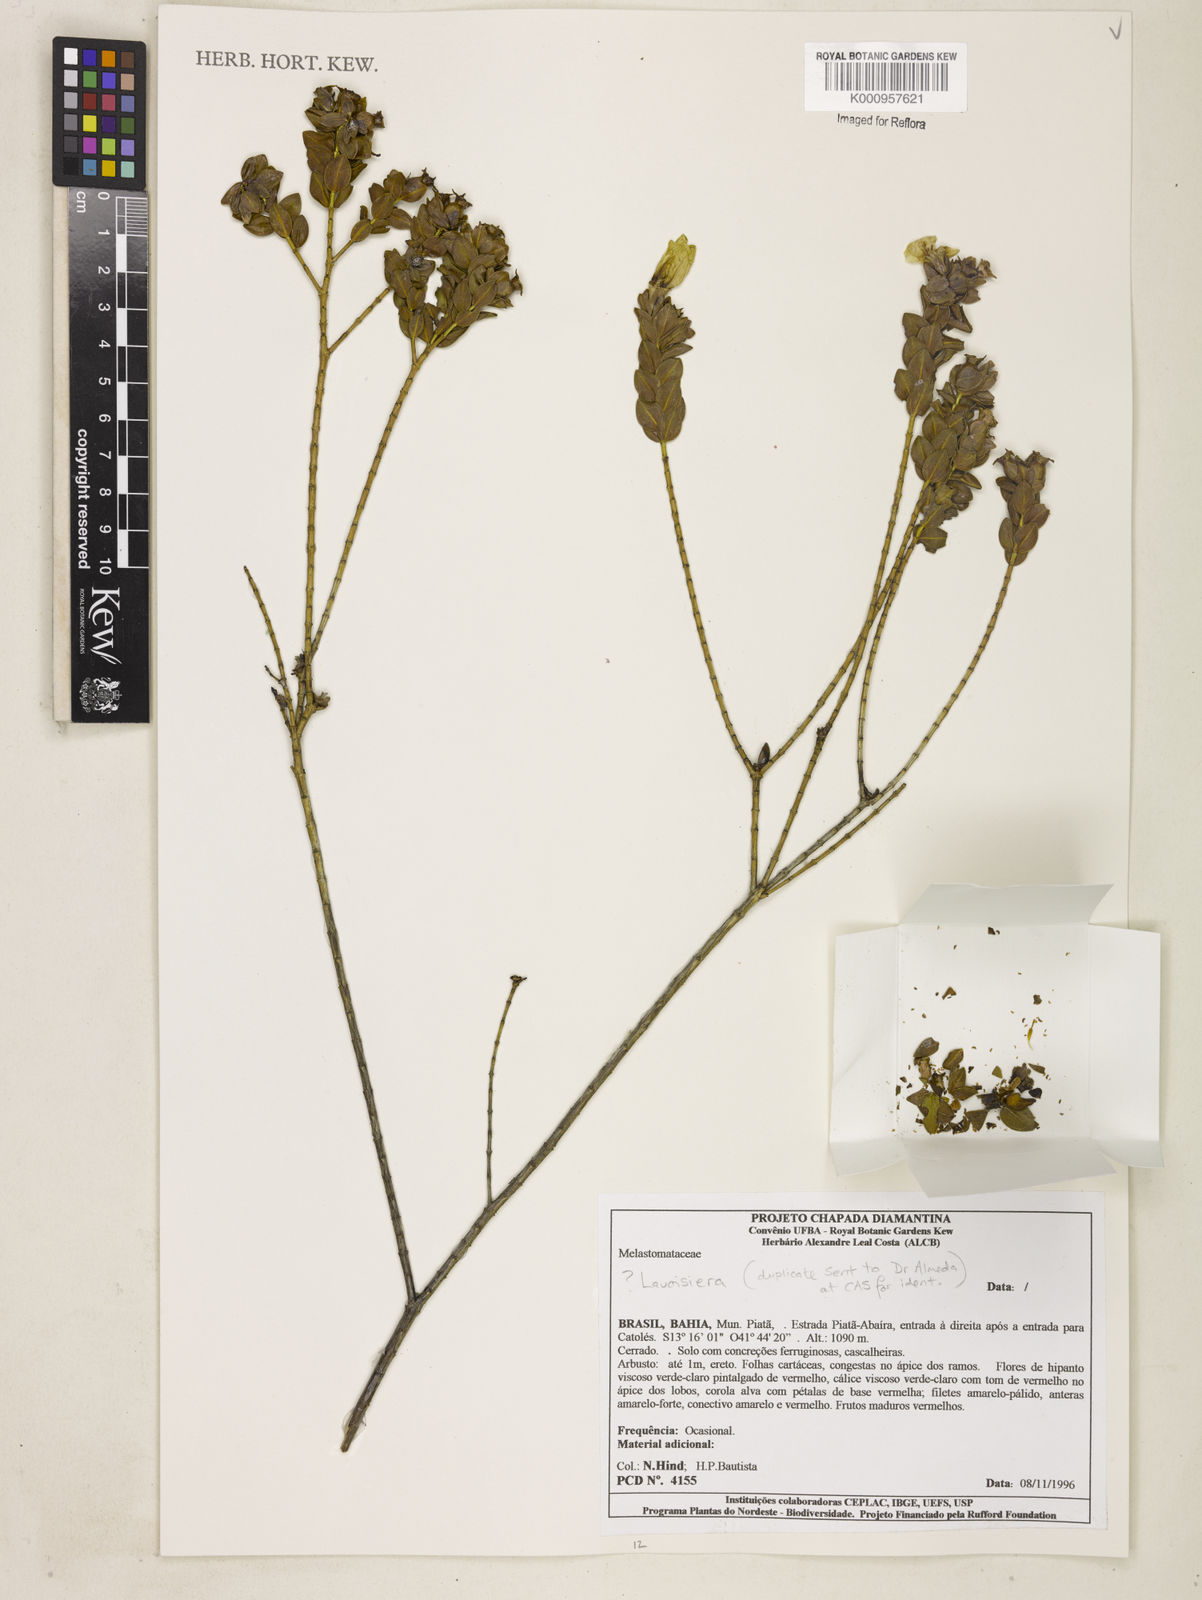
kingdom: Plantae
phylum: Tracheophyta
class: Magnoliopsida
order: Myrtales
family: Melastomataceae
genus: Microlicia
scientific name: Microlicia
